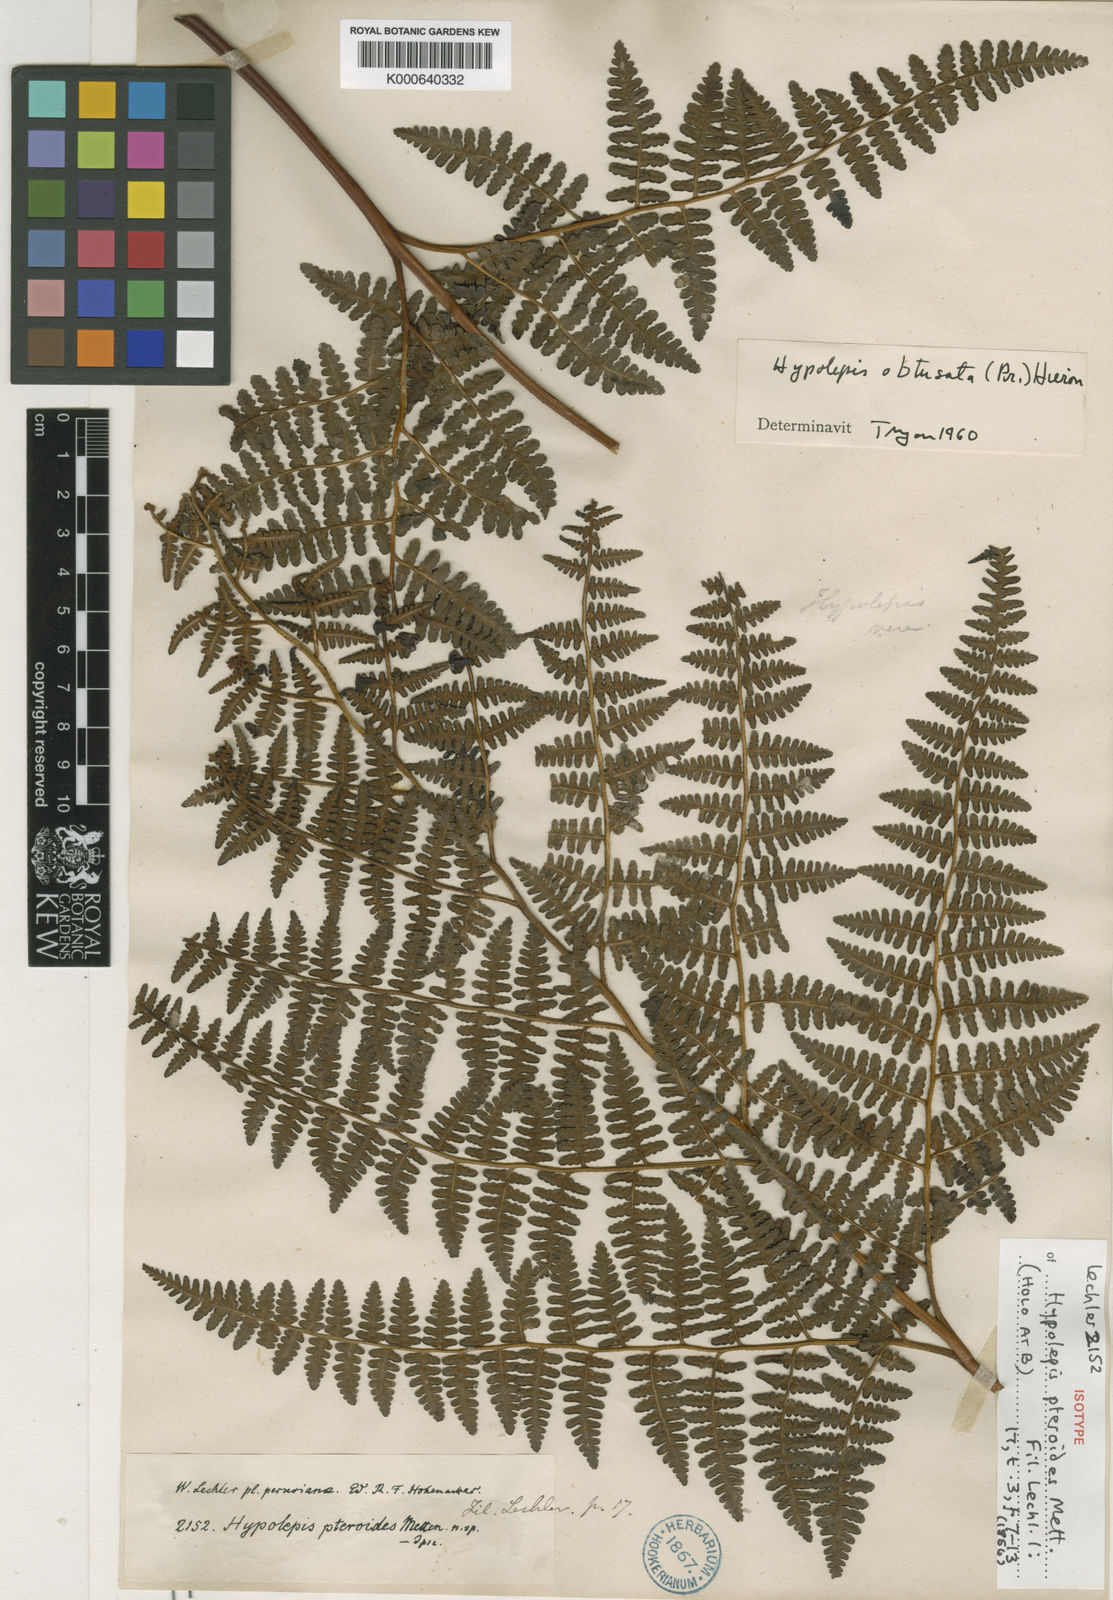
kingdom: Plantae
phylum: Tracheophyta
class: Polypodiopsida
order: Polypodiales
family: Dennstaedtiaceae
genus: Hypolepis
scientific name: Hypolepis
